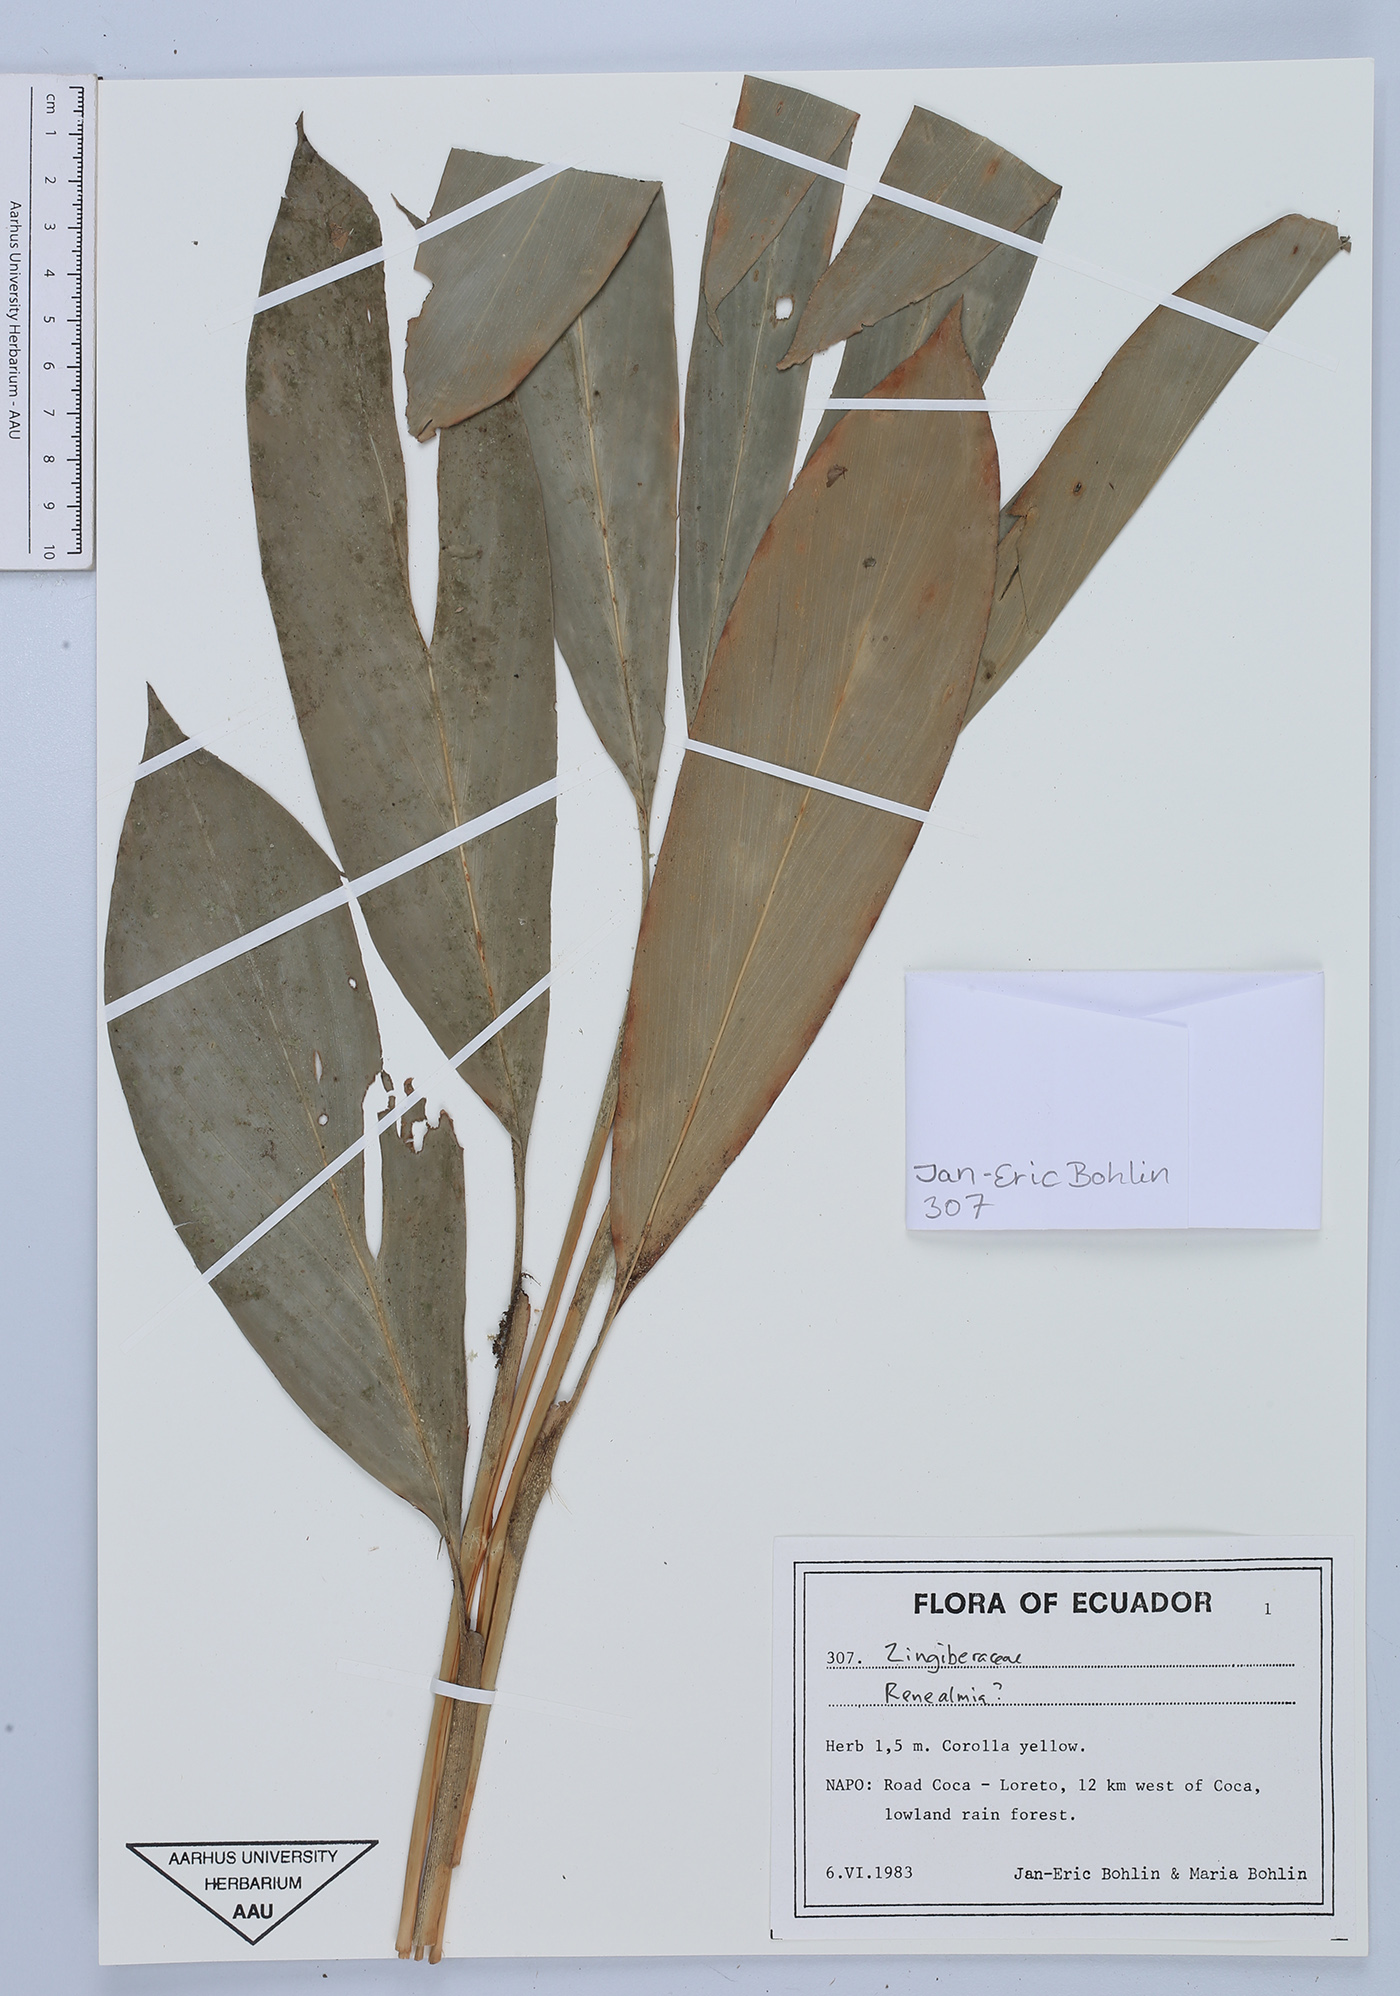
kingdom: Plantae
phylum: Tracheophyta
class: Liliopsida
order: Zingiberales
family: Zingiberaceae
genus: Renealmia
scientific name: Renealmia
